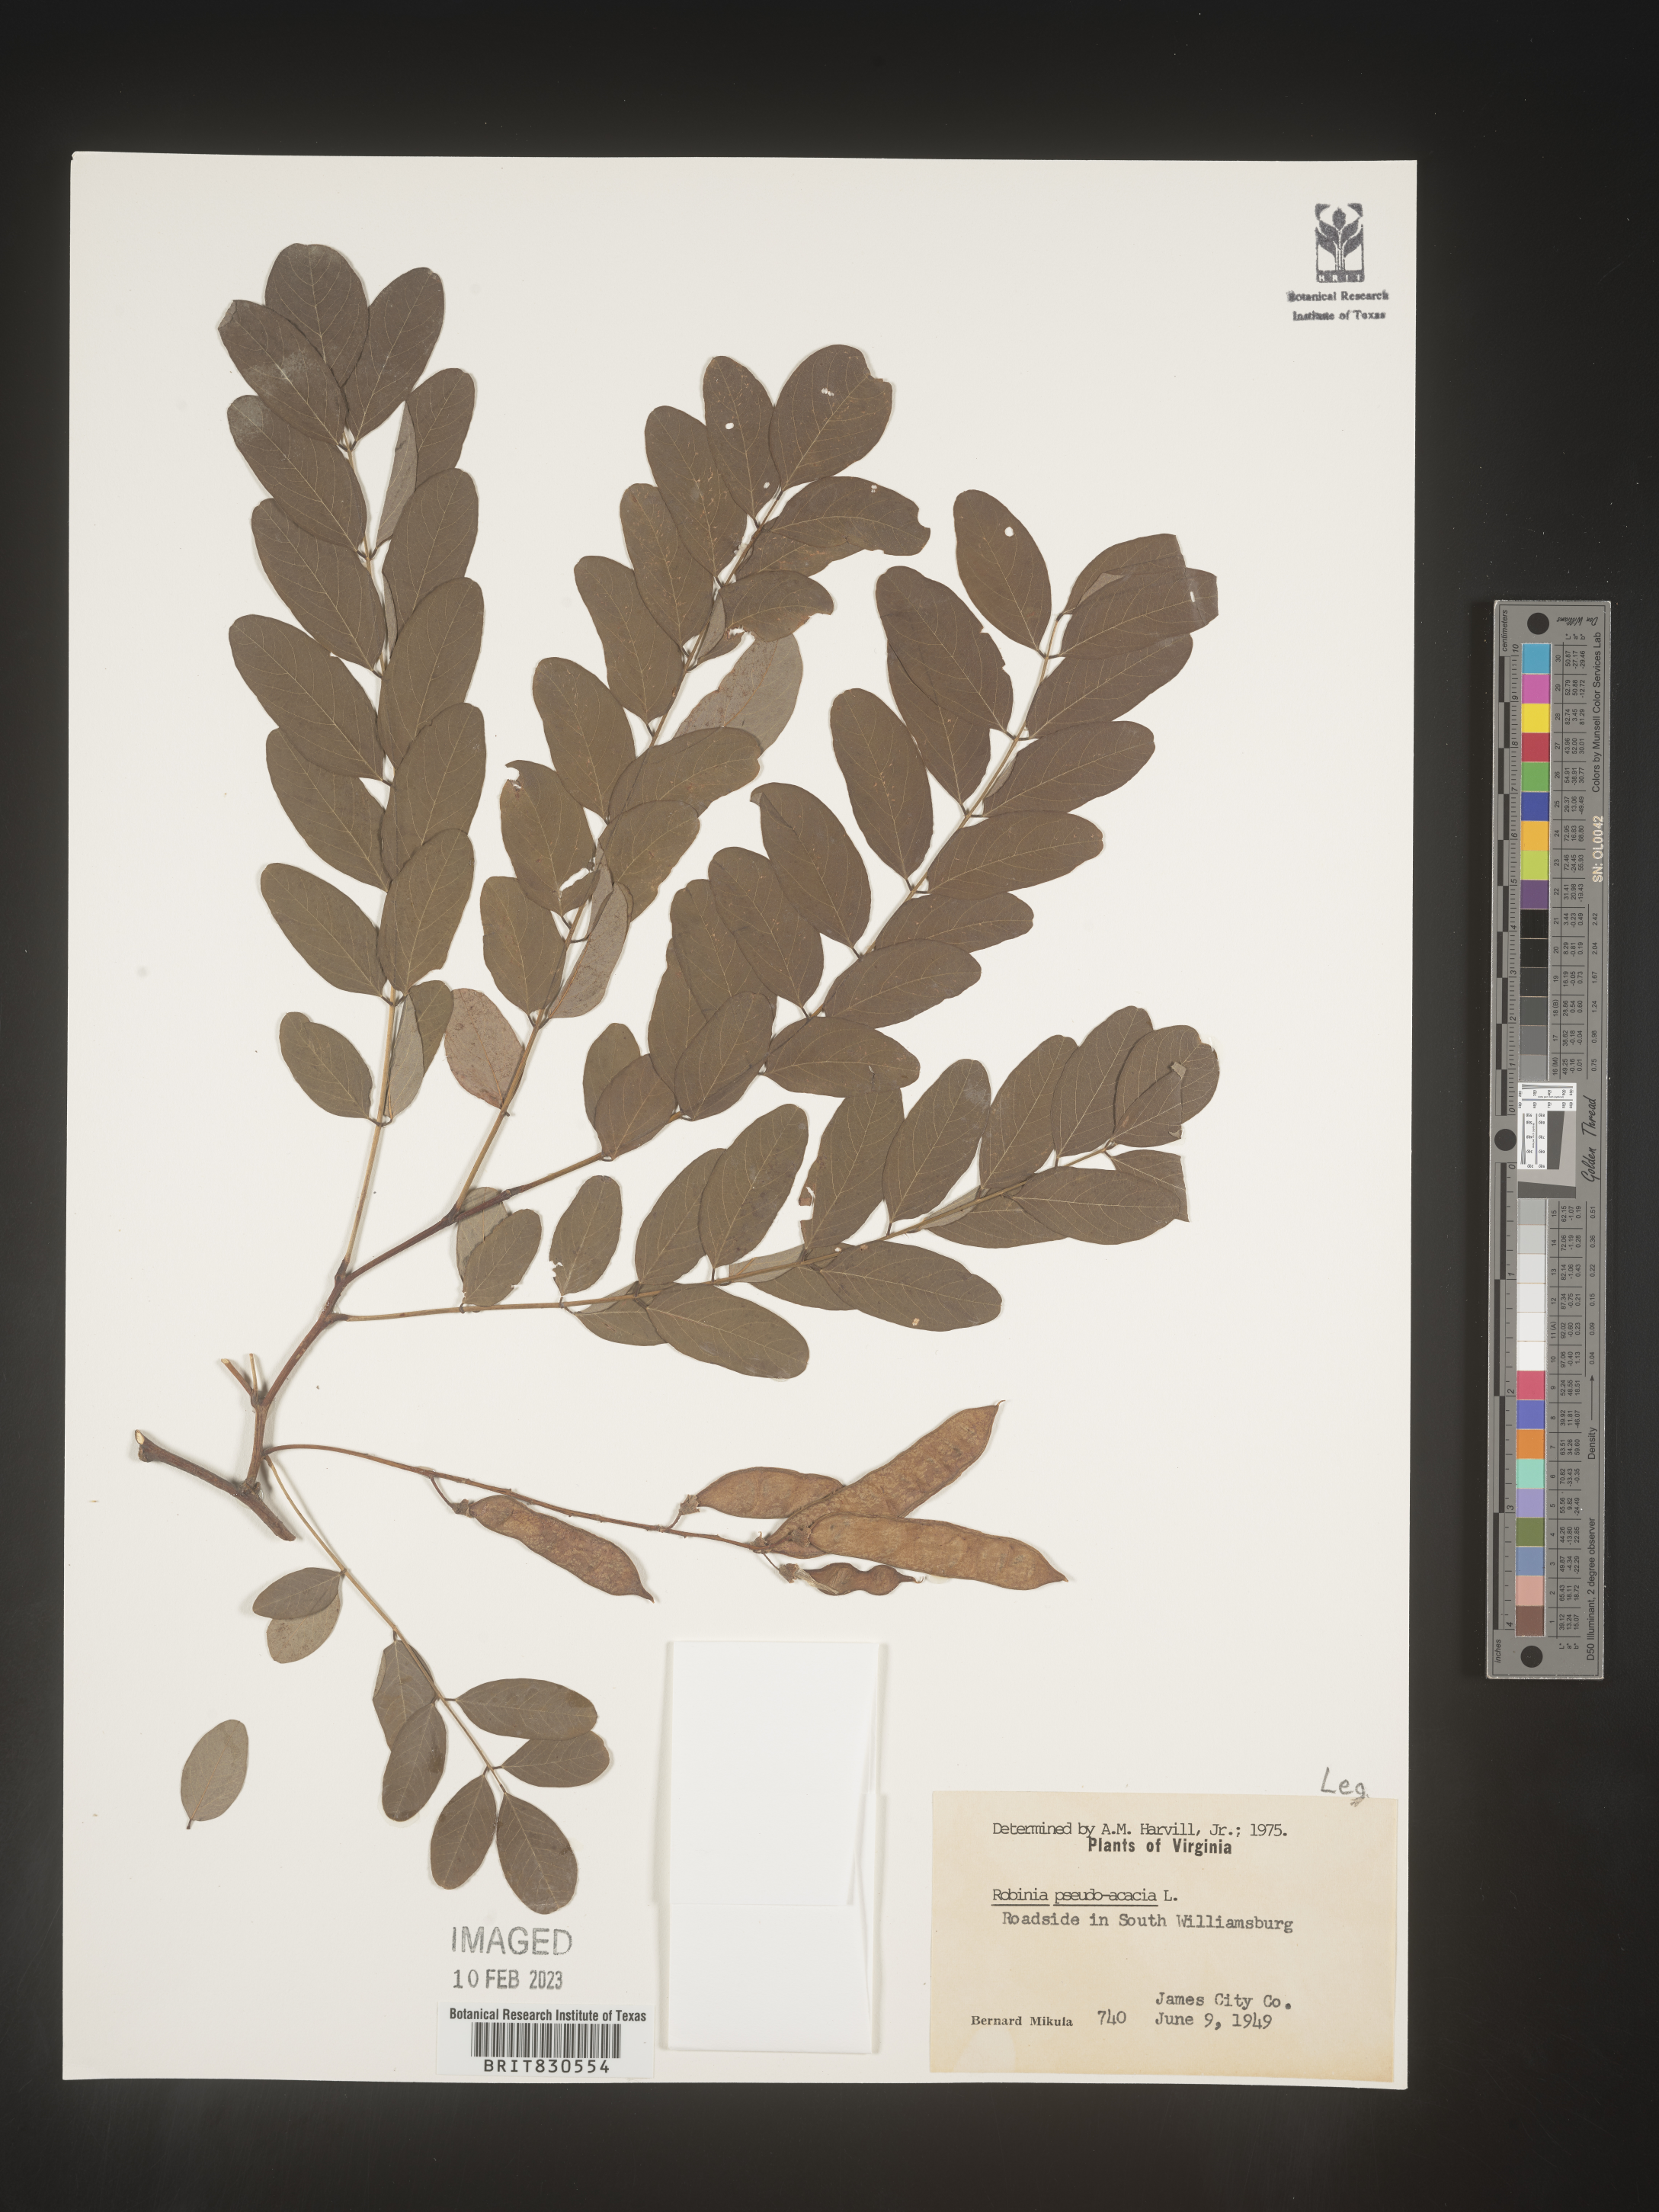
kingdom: Plantae
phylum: Tracheophyta
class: Magnoliopsida
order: Fabales
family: Fabaceae
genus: Robinia
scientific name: Robinia pseudoacacia
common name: Black locust
